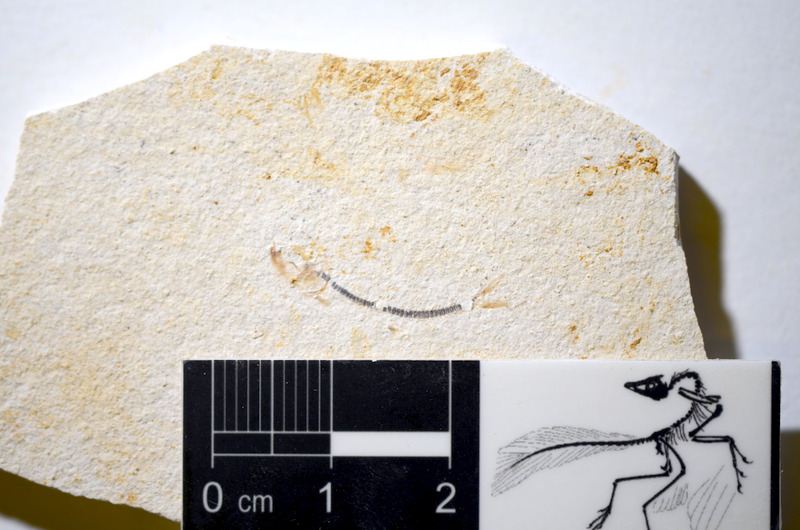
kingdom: Animalia
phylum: Chordata
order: Salmoniformes
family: Orthogonikleithridae
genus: Orthogonikleithrus
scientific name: Orthogonikleithrus hoelli
